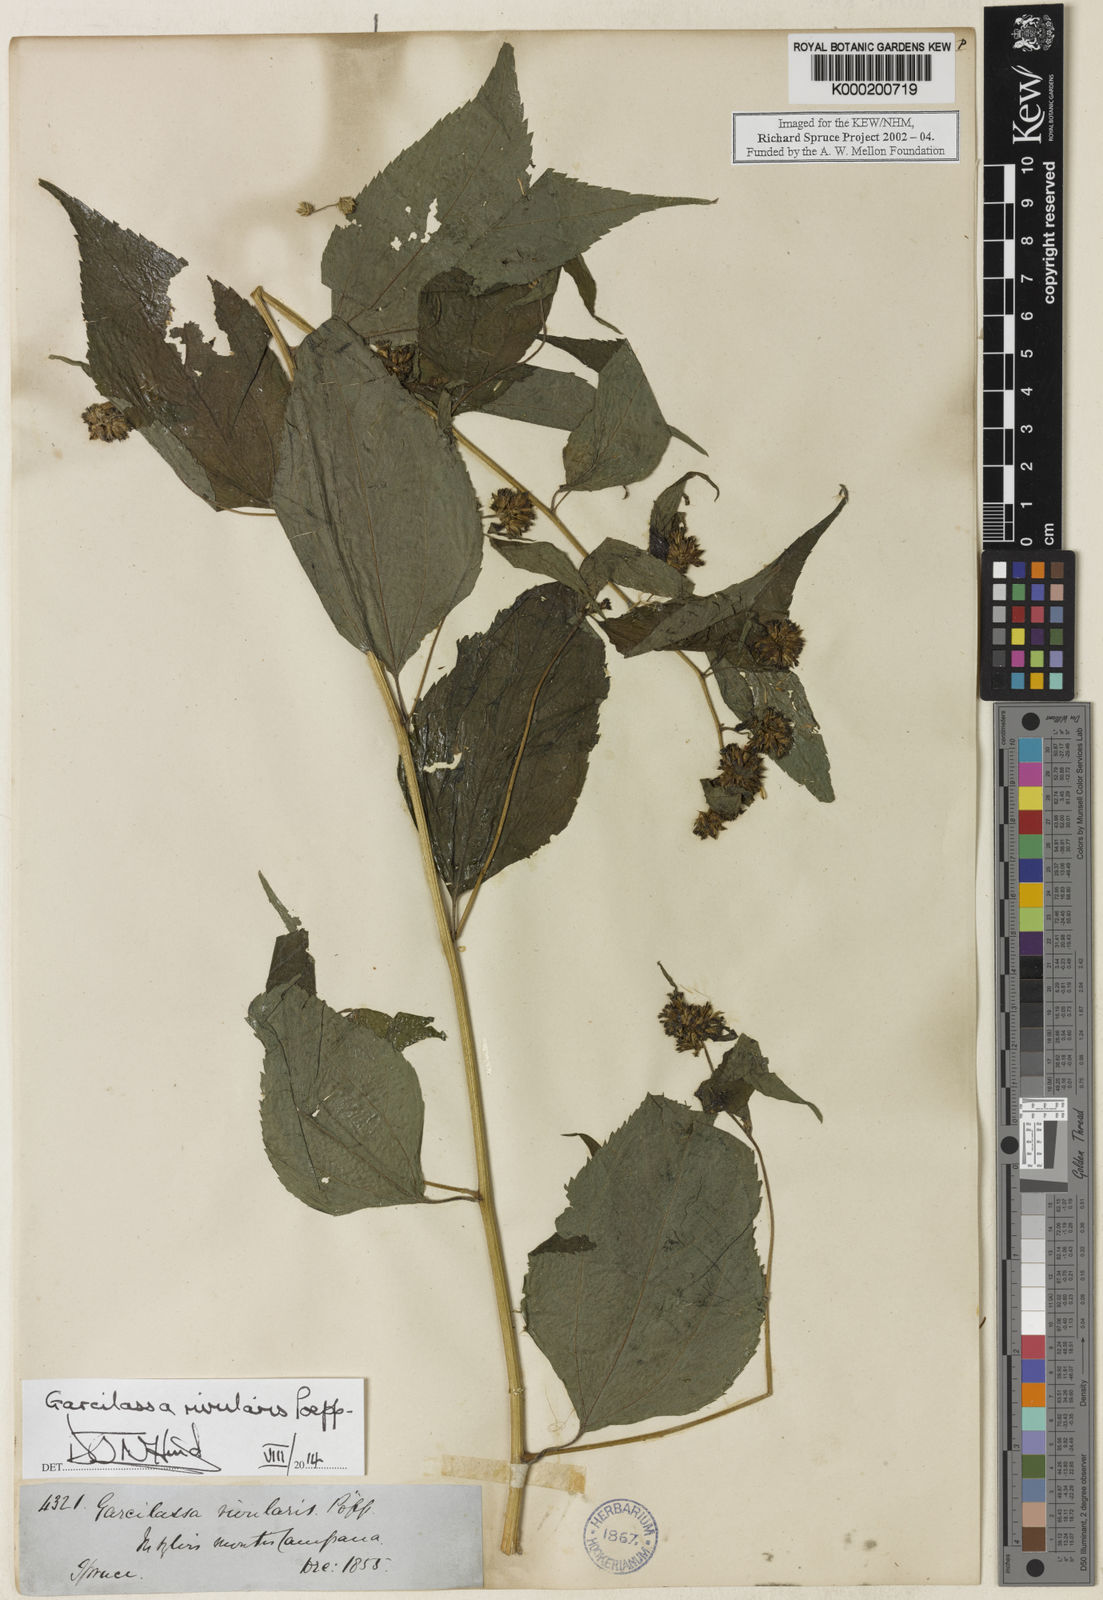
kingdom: Plantae
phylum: Tracheophyta
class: Magnoliopsida
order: Asterales
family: Asteraceae
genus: Hymenostephium
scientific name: Hymenostephium rivularis
